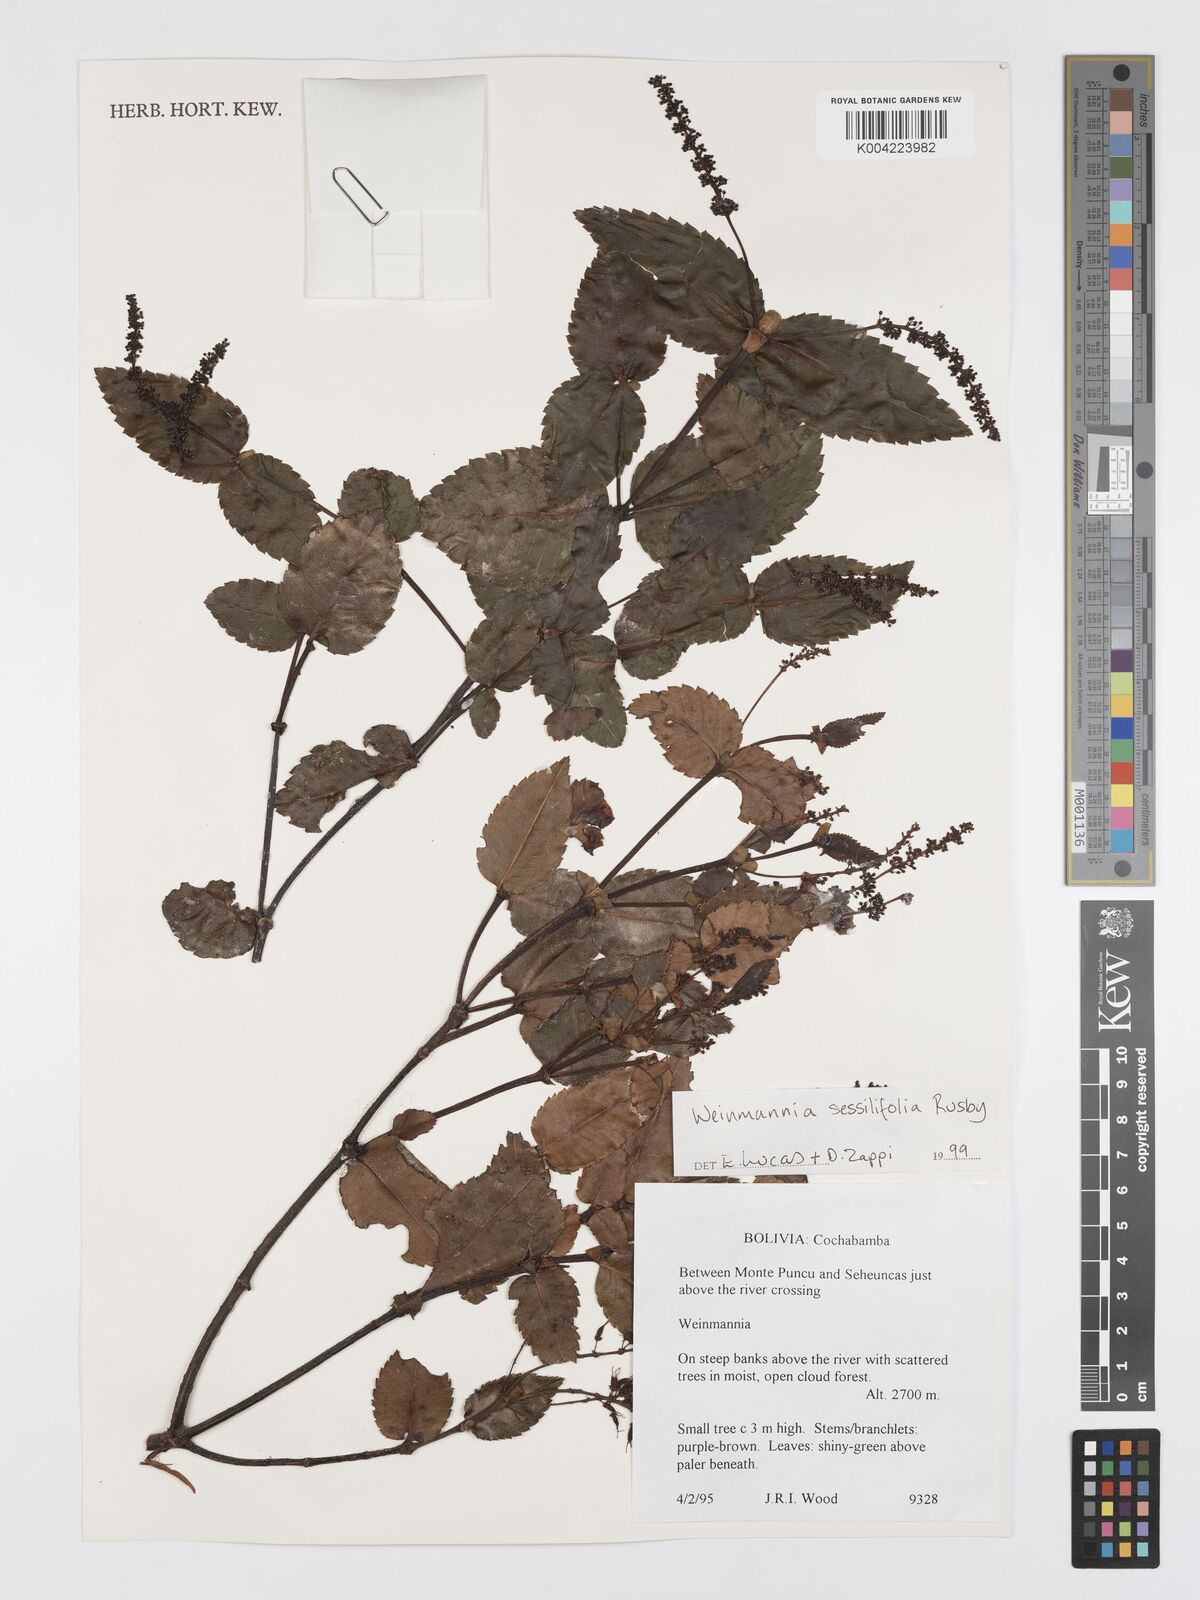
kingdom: Plantae
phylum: Tracheophyta
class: Magnoliopsida
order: Oxalidales
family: Cunoniaceae
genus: Weinmannia
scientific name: Weinmannia crassifolia
